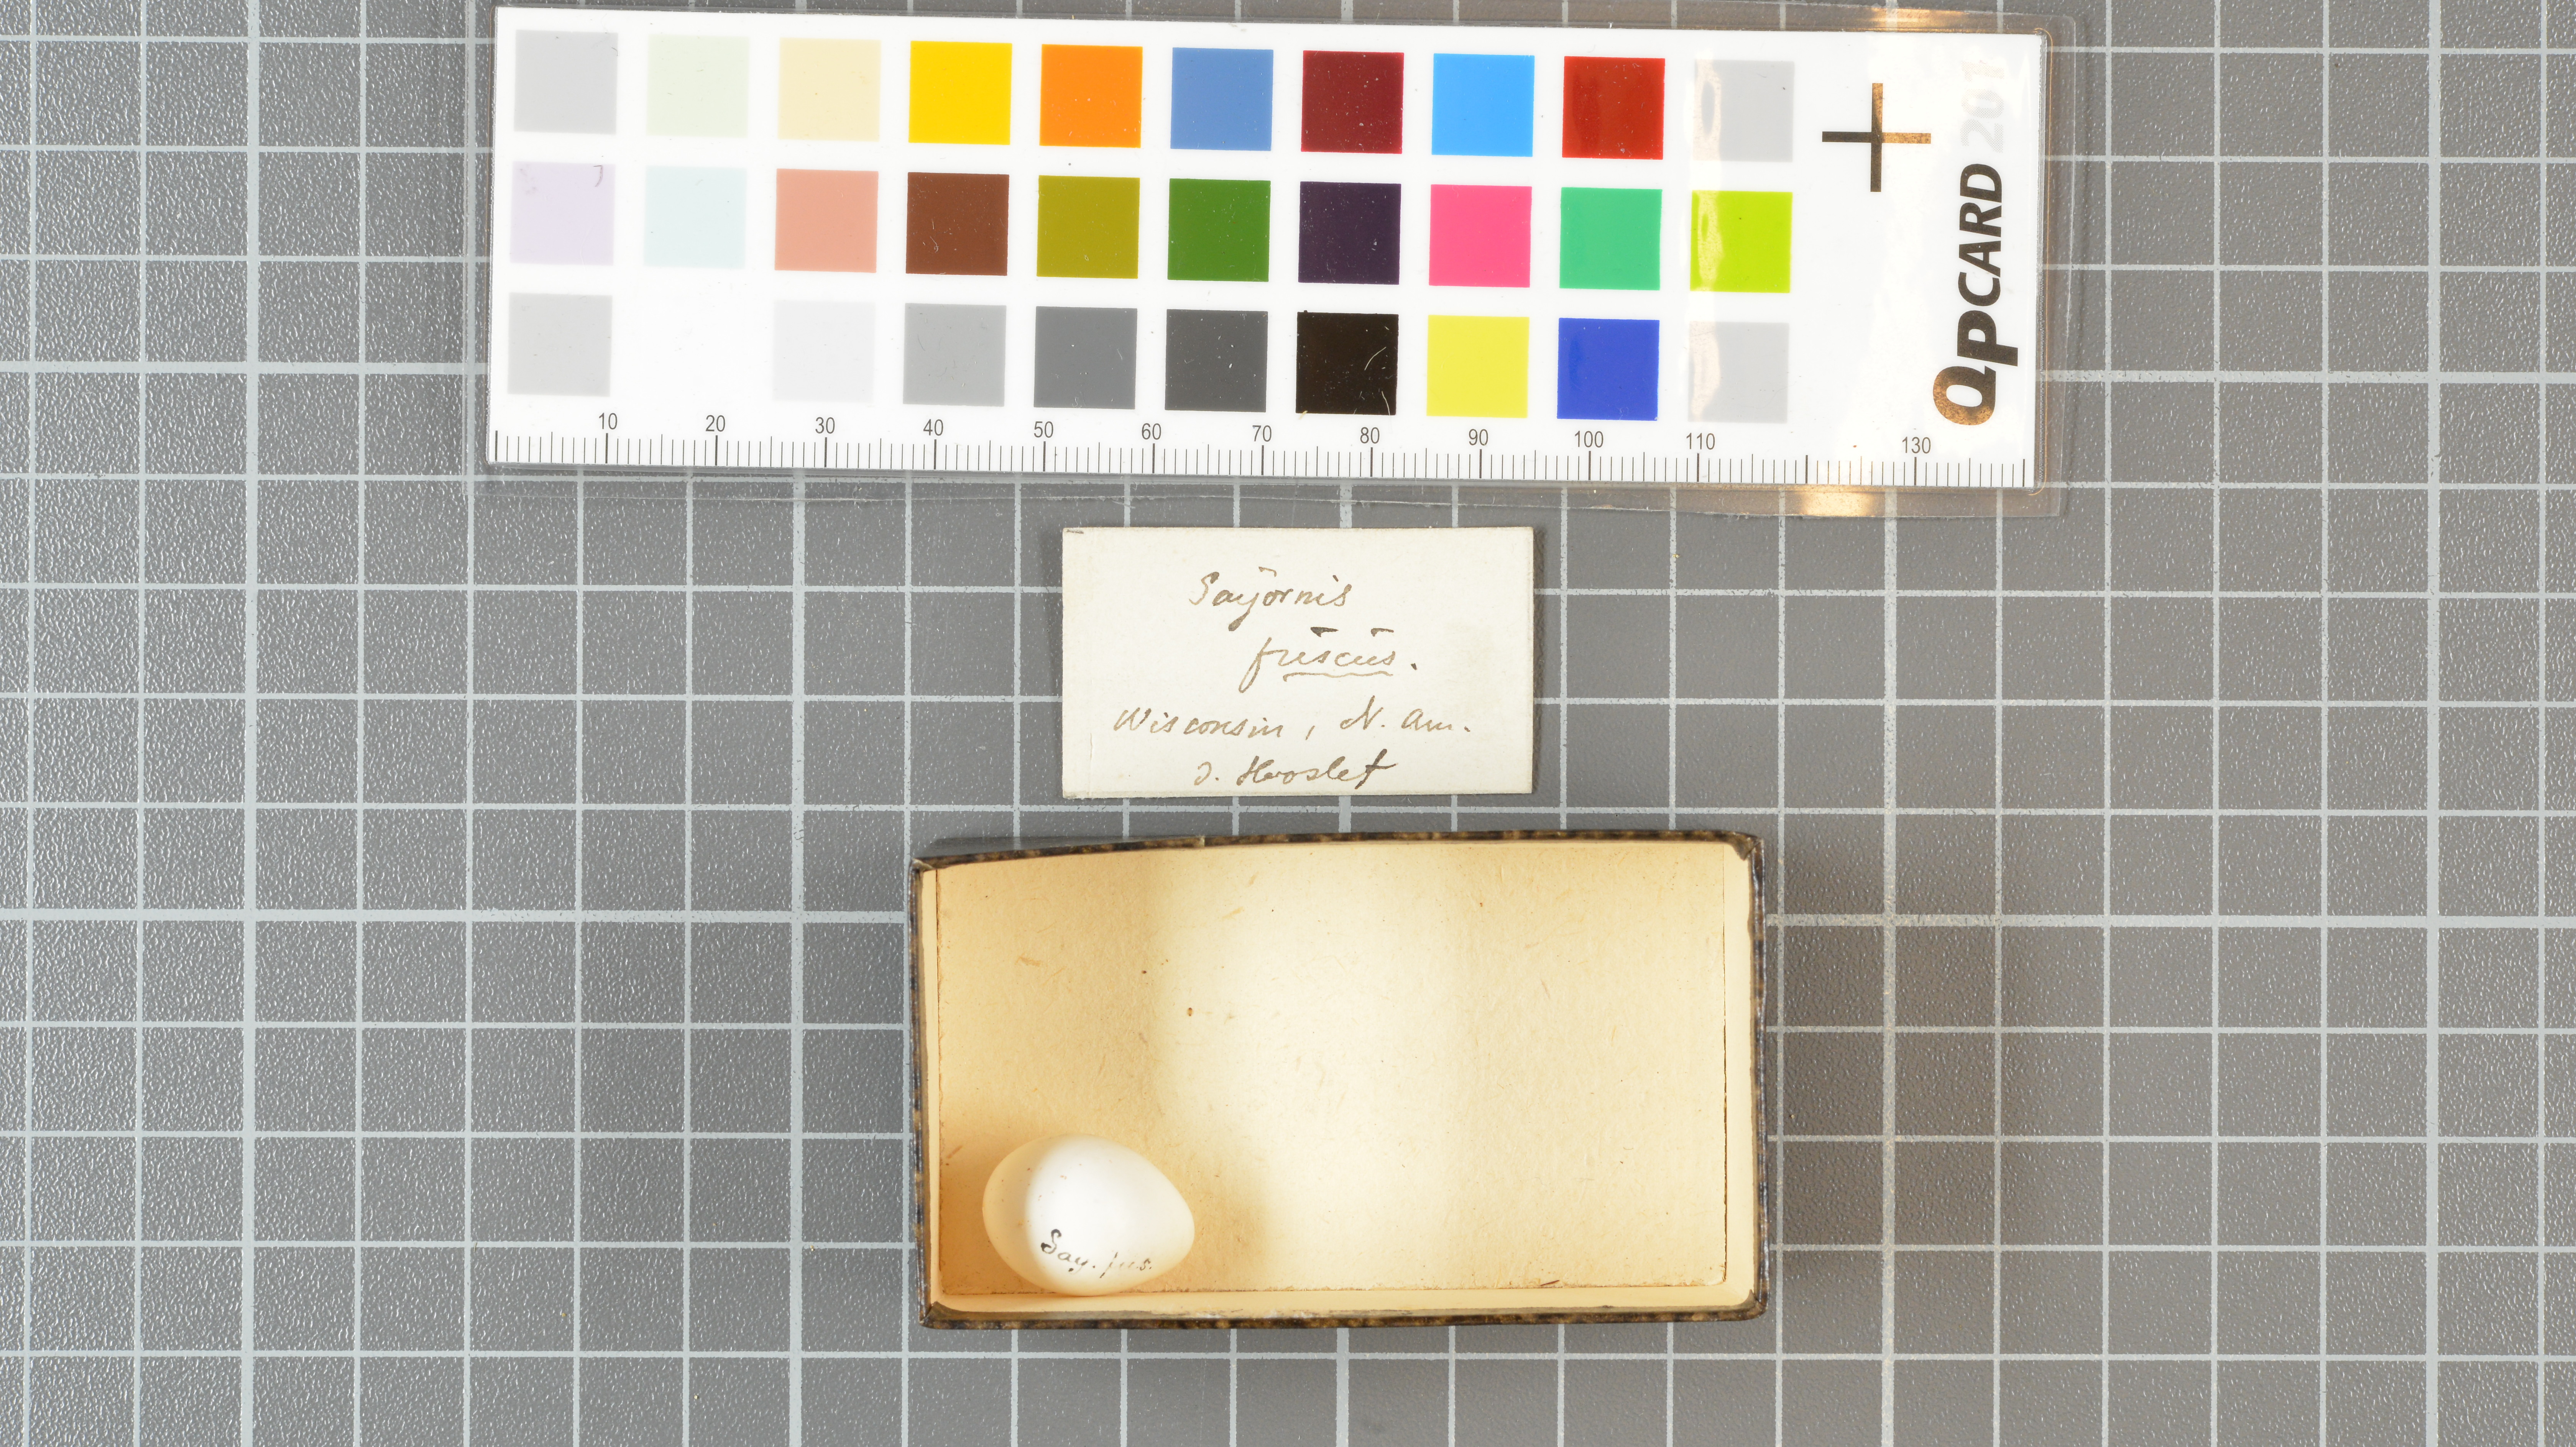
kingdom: Animalia
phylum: Chordata
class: Aves
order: Passeriformes
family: Tyrannidae
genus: Sayornis
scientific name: Sayornis phoebe
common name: Eastern phoebe
